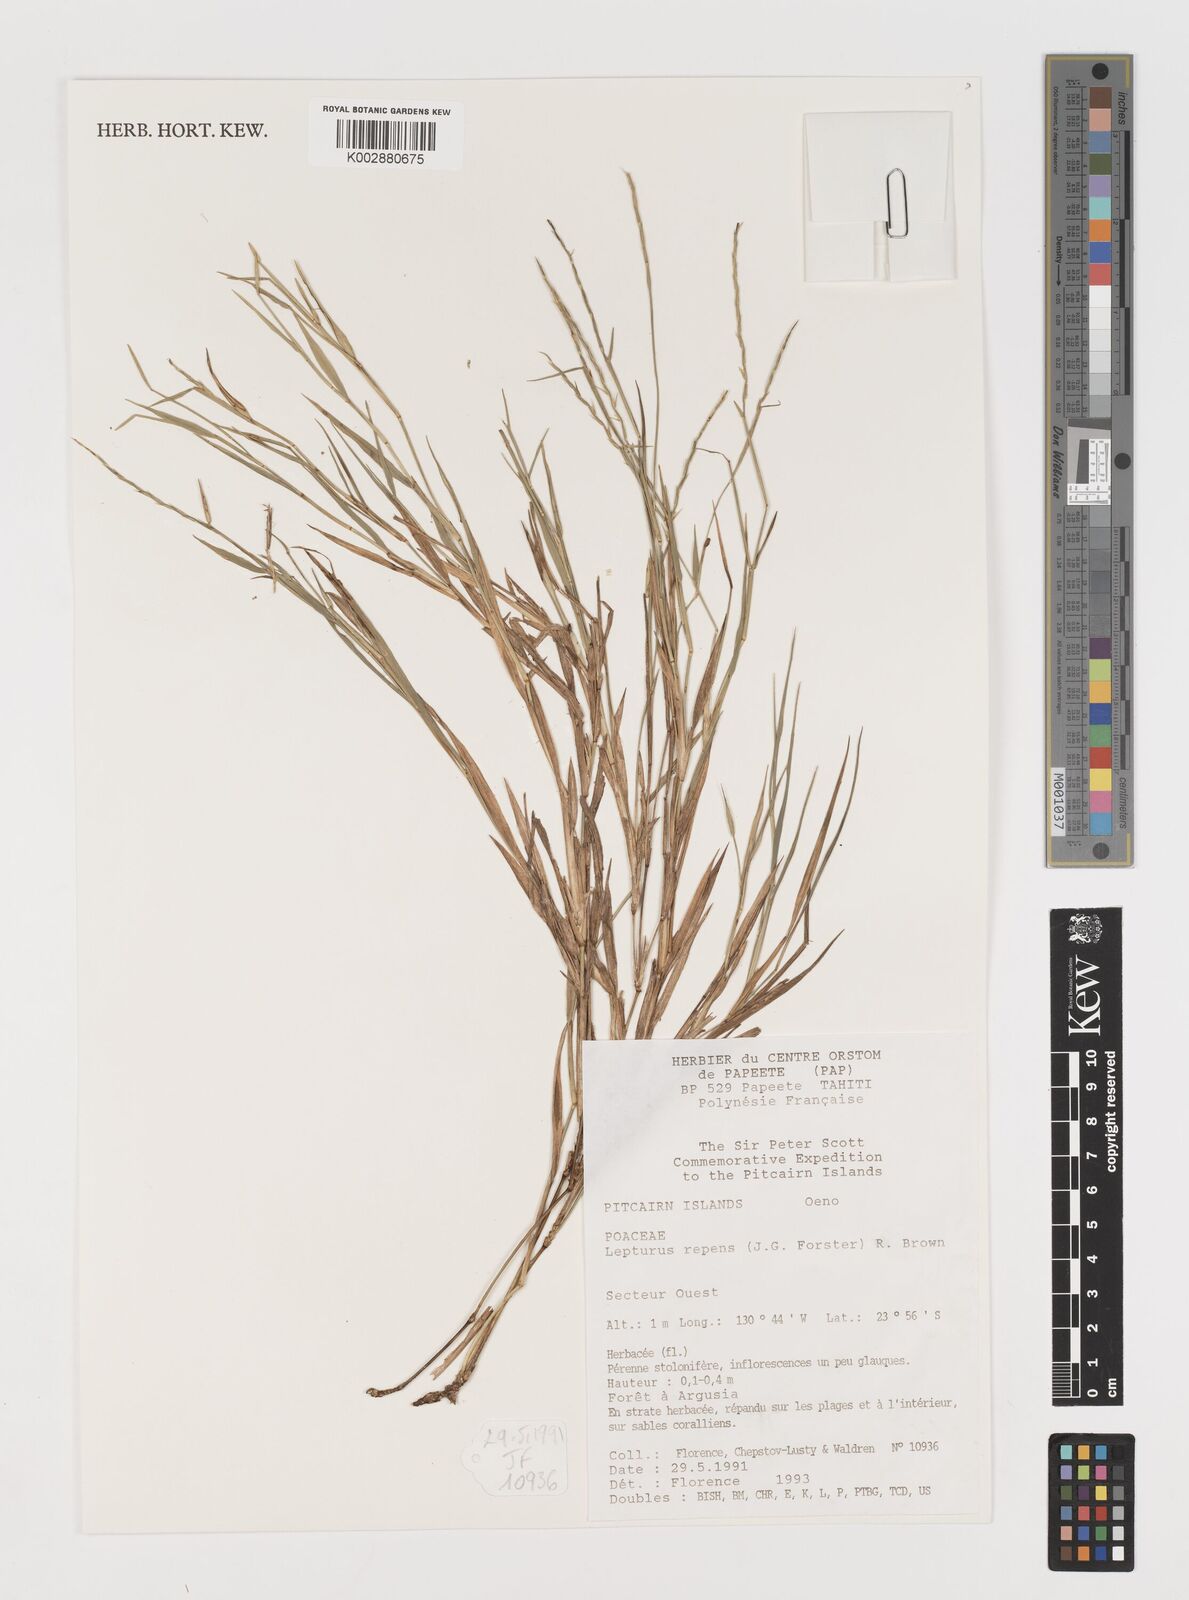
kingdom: Plantae
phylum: Tracheophyta
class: Liliopsida
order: Poales
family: Poaceae
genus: Lepturus
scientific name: Lepturus repens
